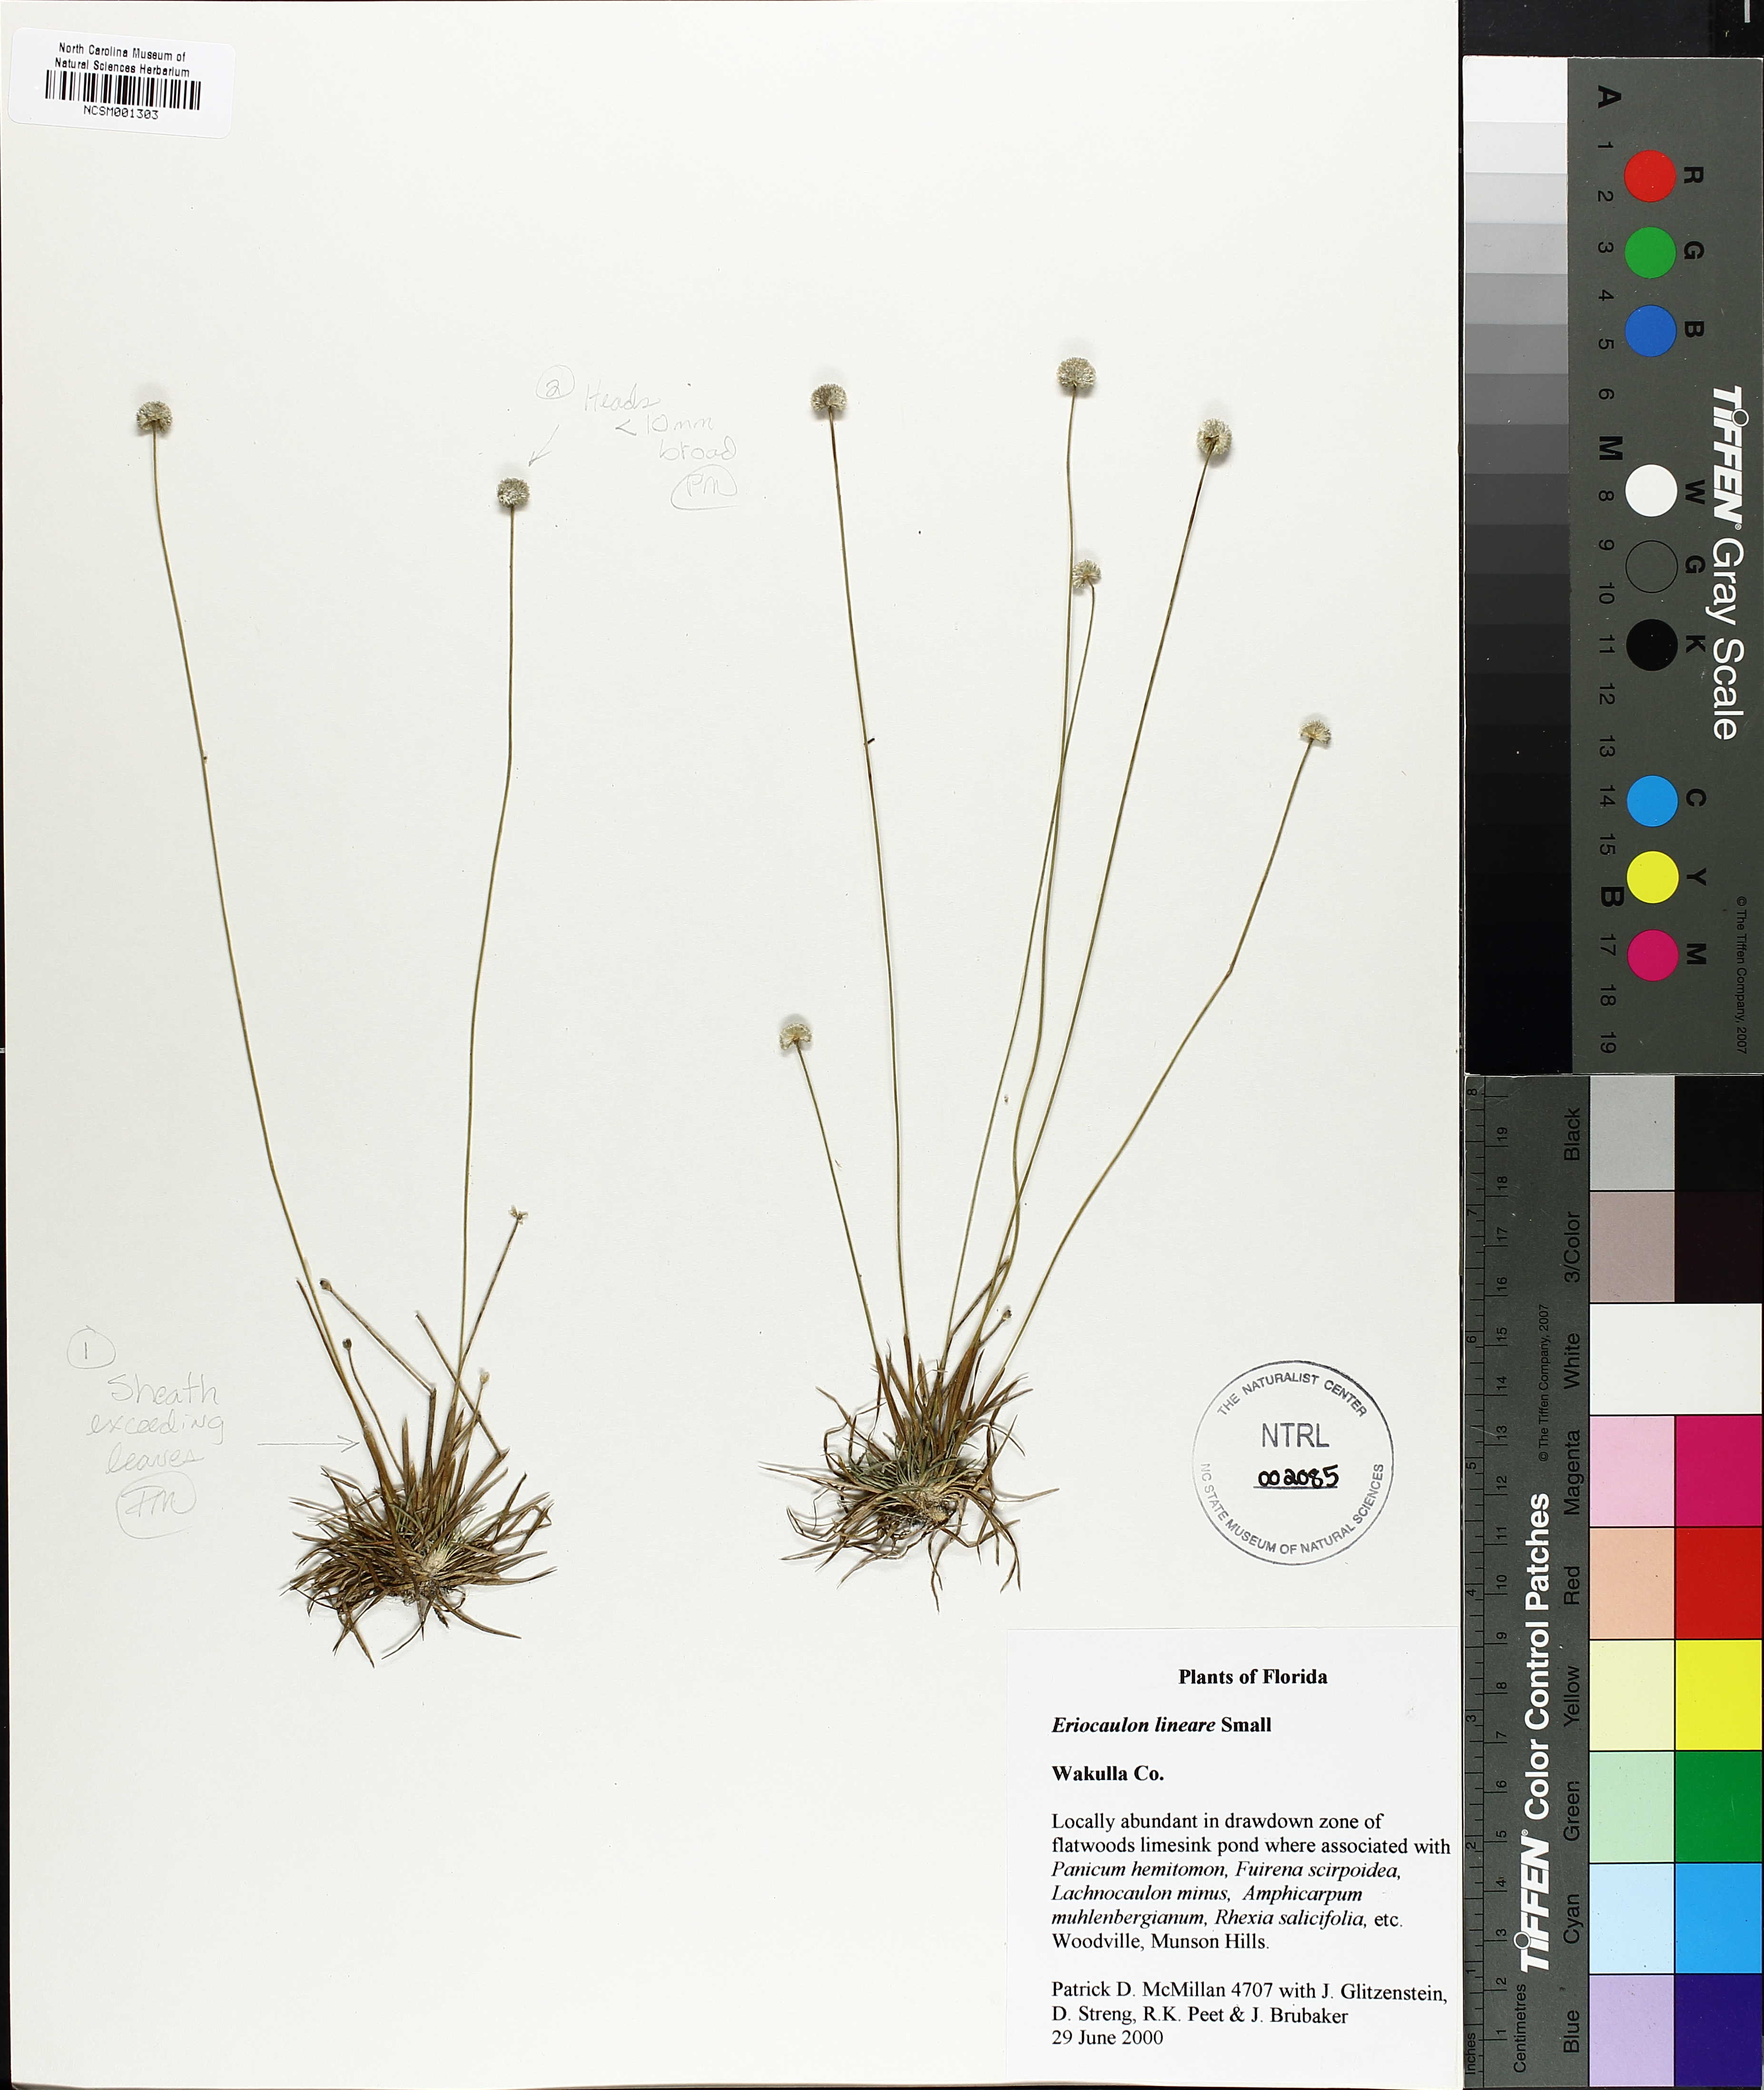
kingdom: Plantae
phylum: Tracheophyta
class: Liliopsida
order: Poales
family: Eriocaulaceae
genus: Eriocaulon
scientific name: Eriocaulon lineare
